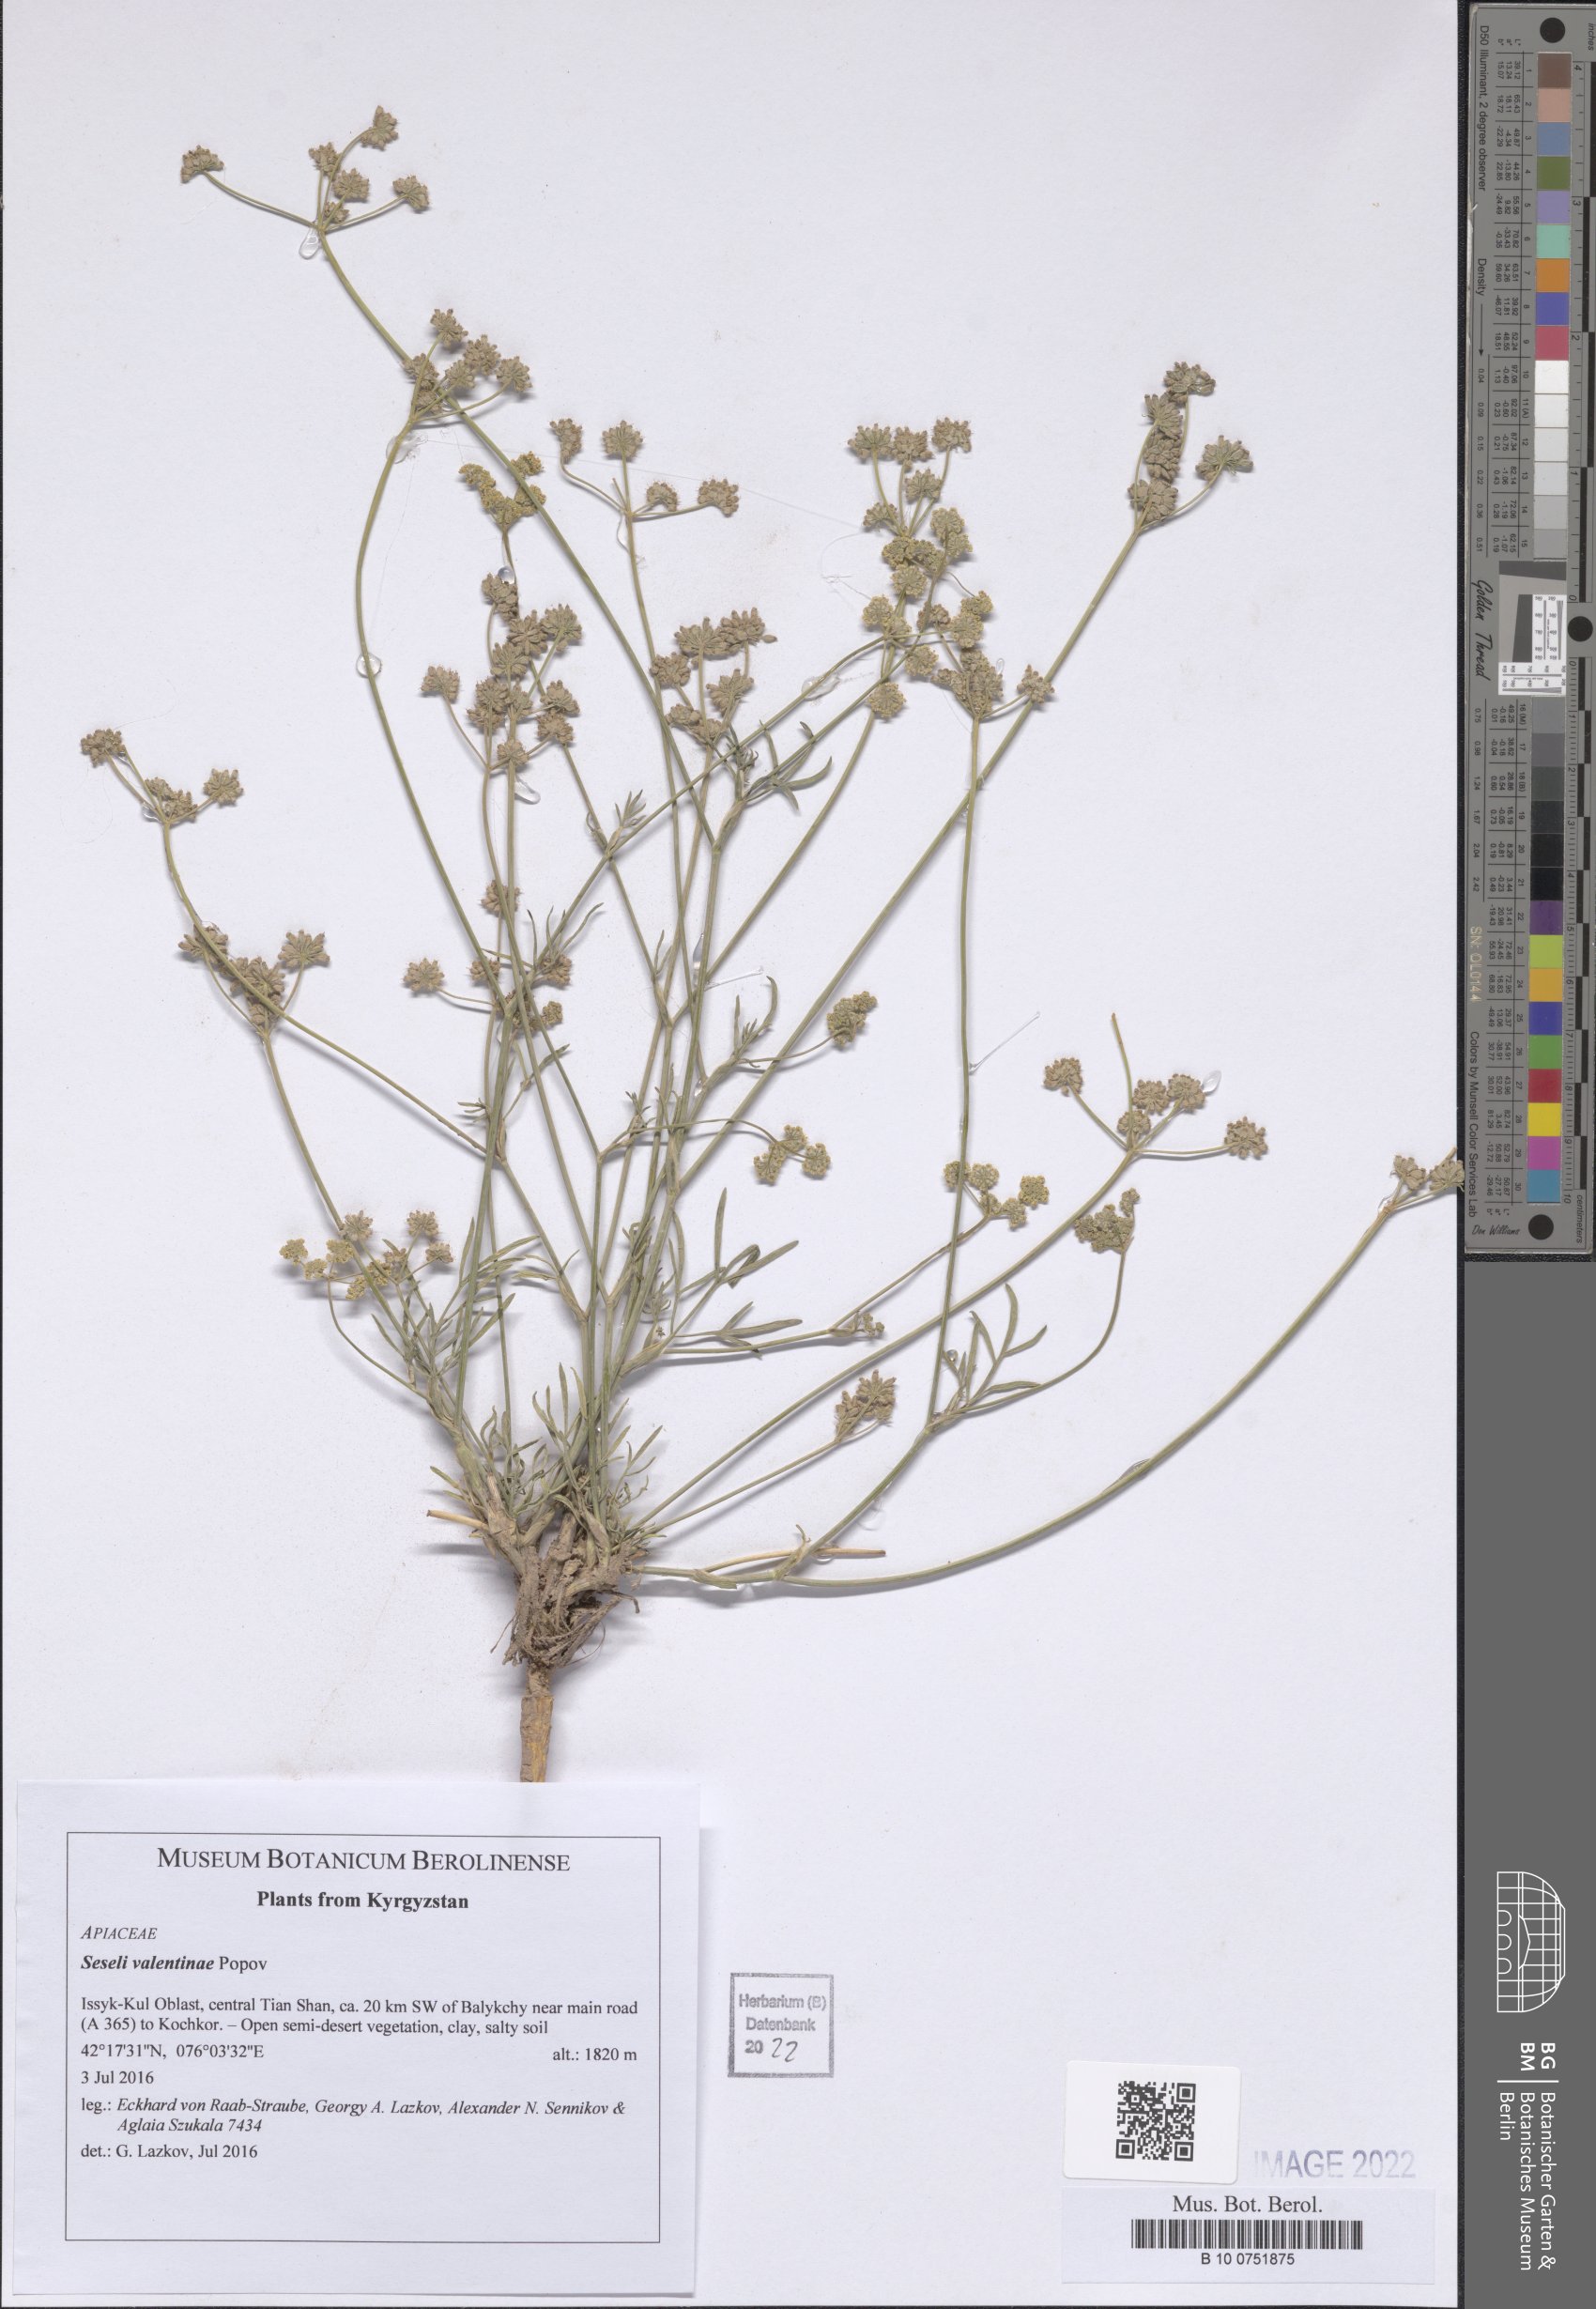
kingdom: Plantae
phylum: Tracheophyta
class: Magnoliopsida
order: Apiales
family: Apiaceae
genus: Seseli
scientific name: Seseli valentinae
